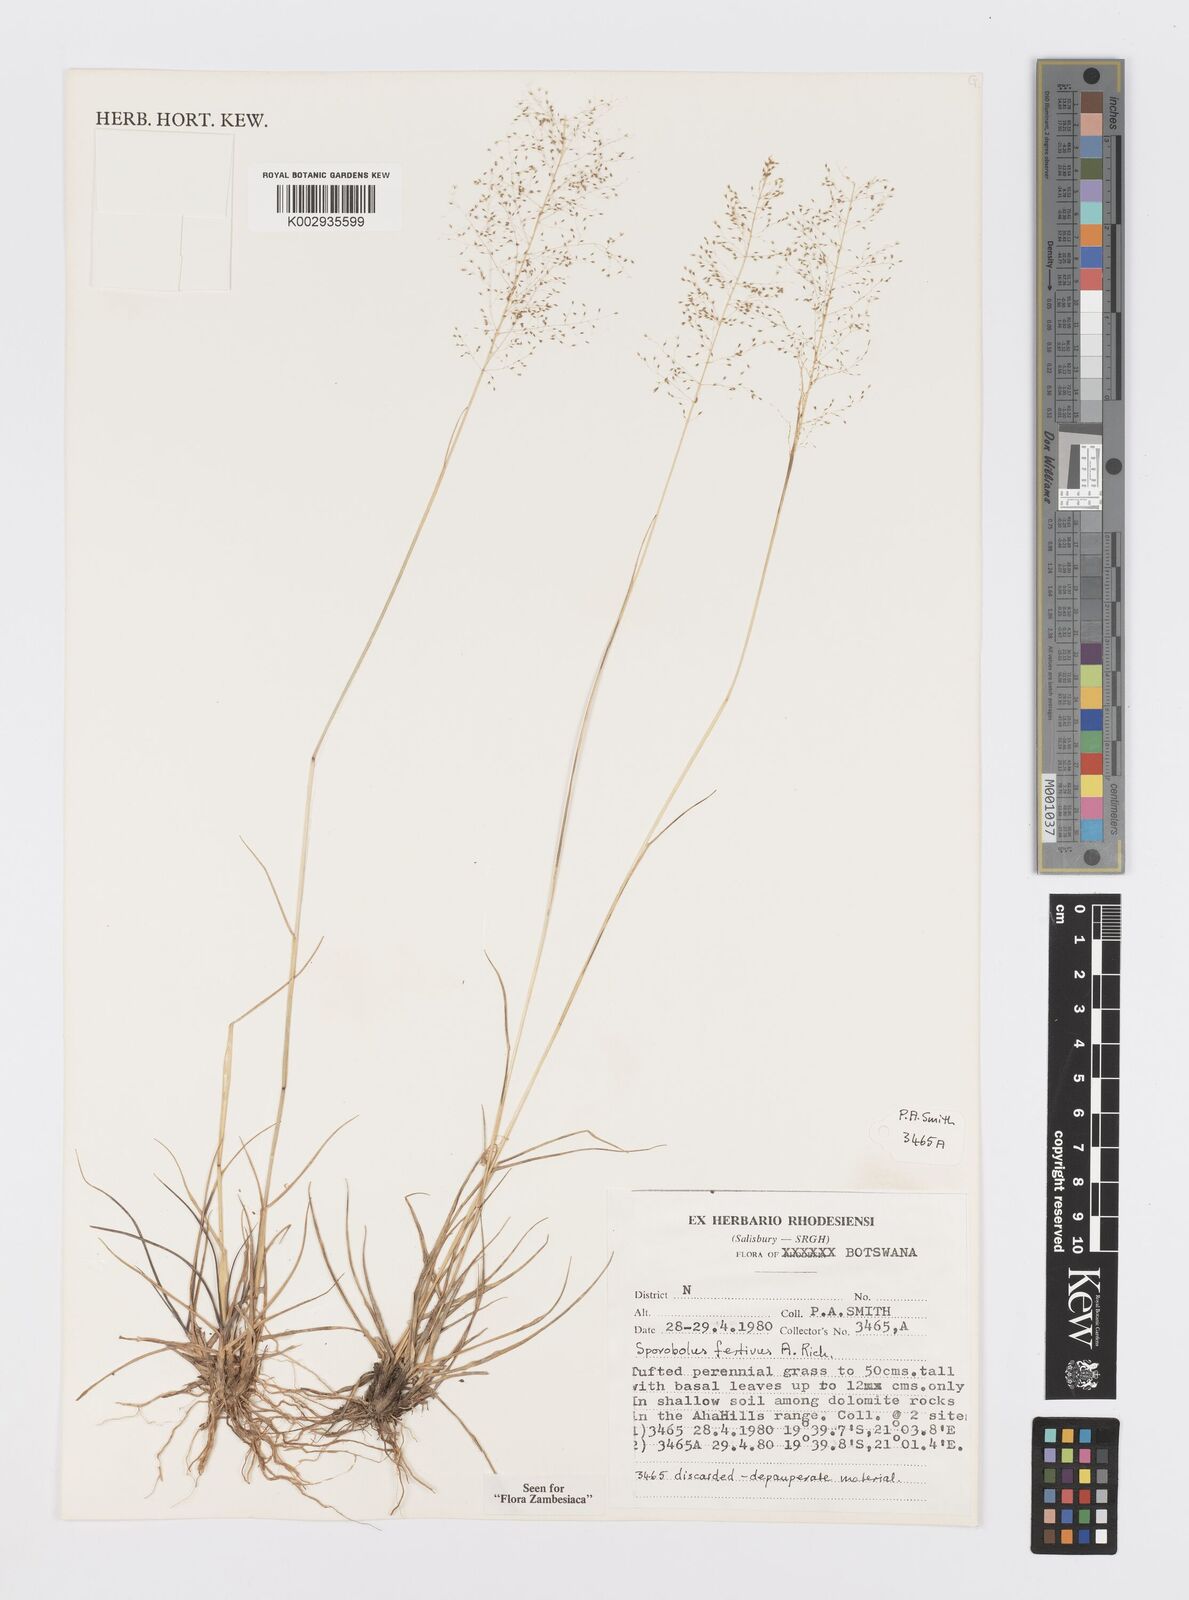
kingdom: Plantae
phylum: Tracheophyta
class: Liliopsida
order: Poales
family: Poaceae
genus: Sporobolus
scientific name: Sporobolus festivus
